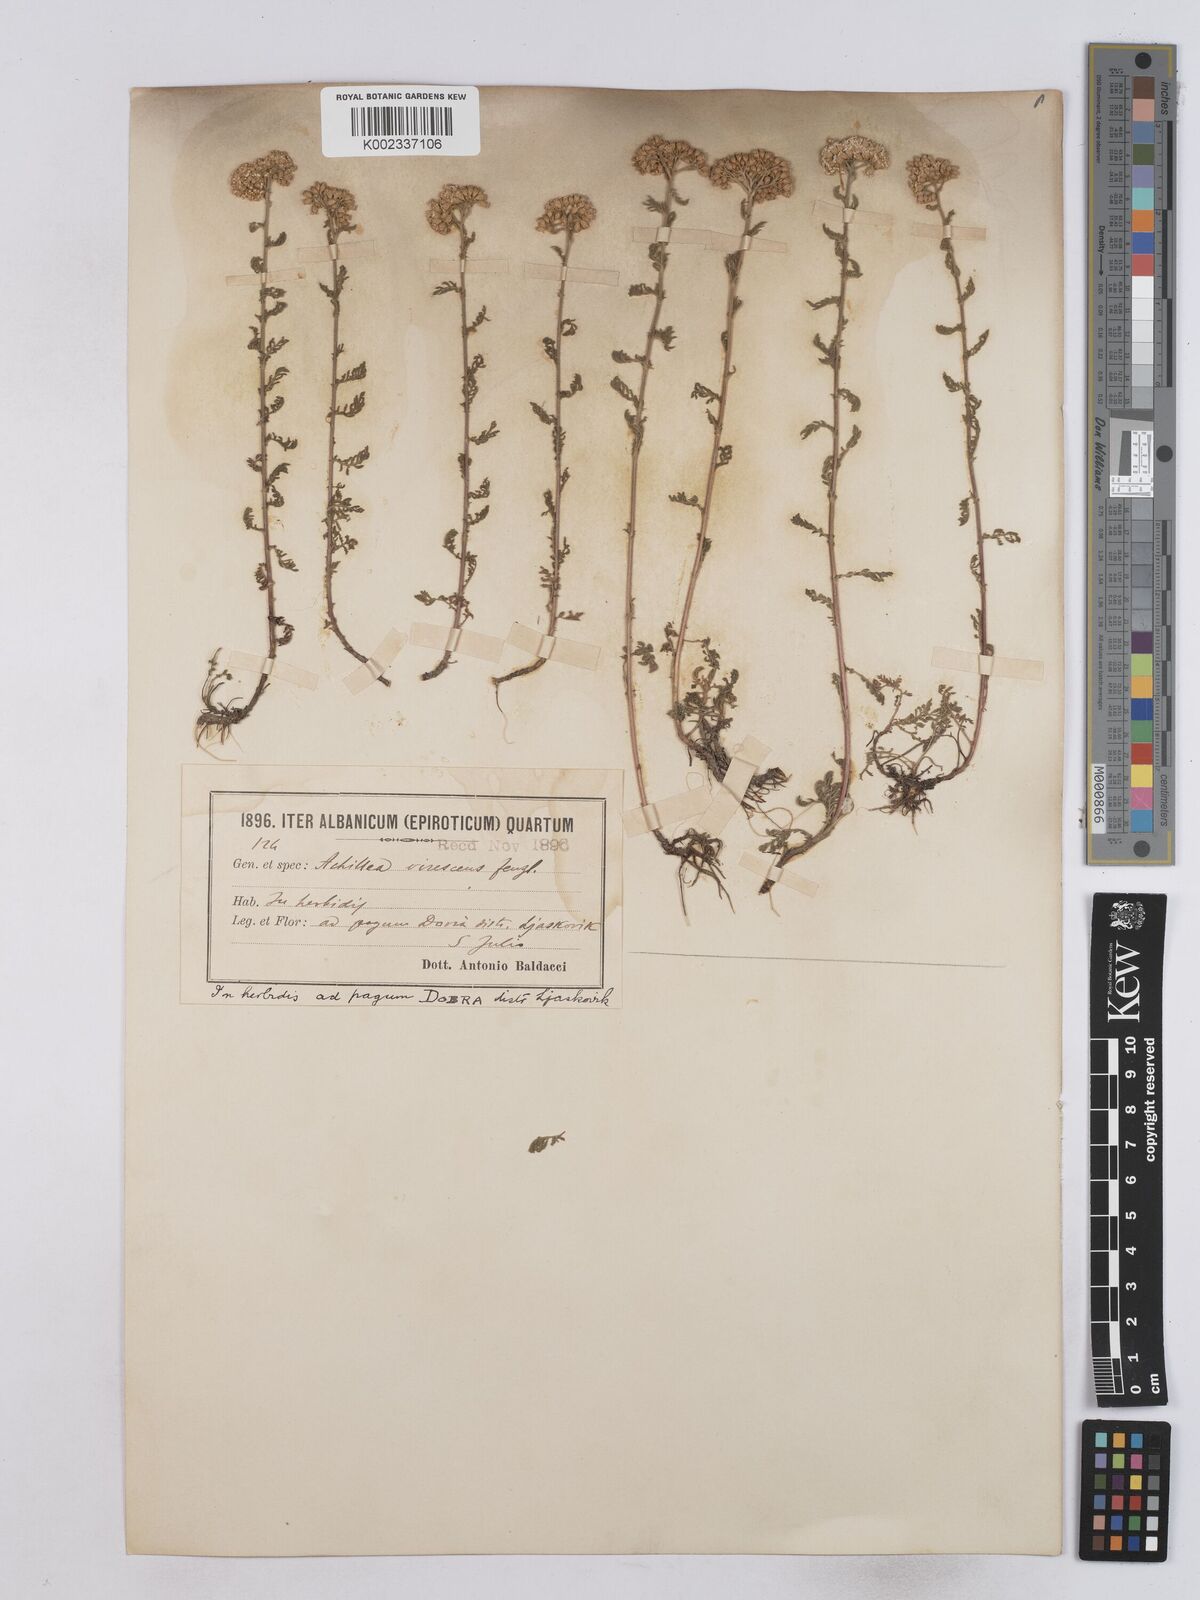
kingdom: Plantae
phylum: Tracheophyta
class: Magnoliopsida
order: Asterales
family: Asteraceae
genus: Achillea
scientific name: Achillea virescens
